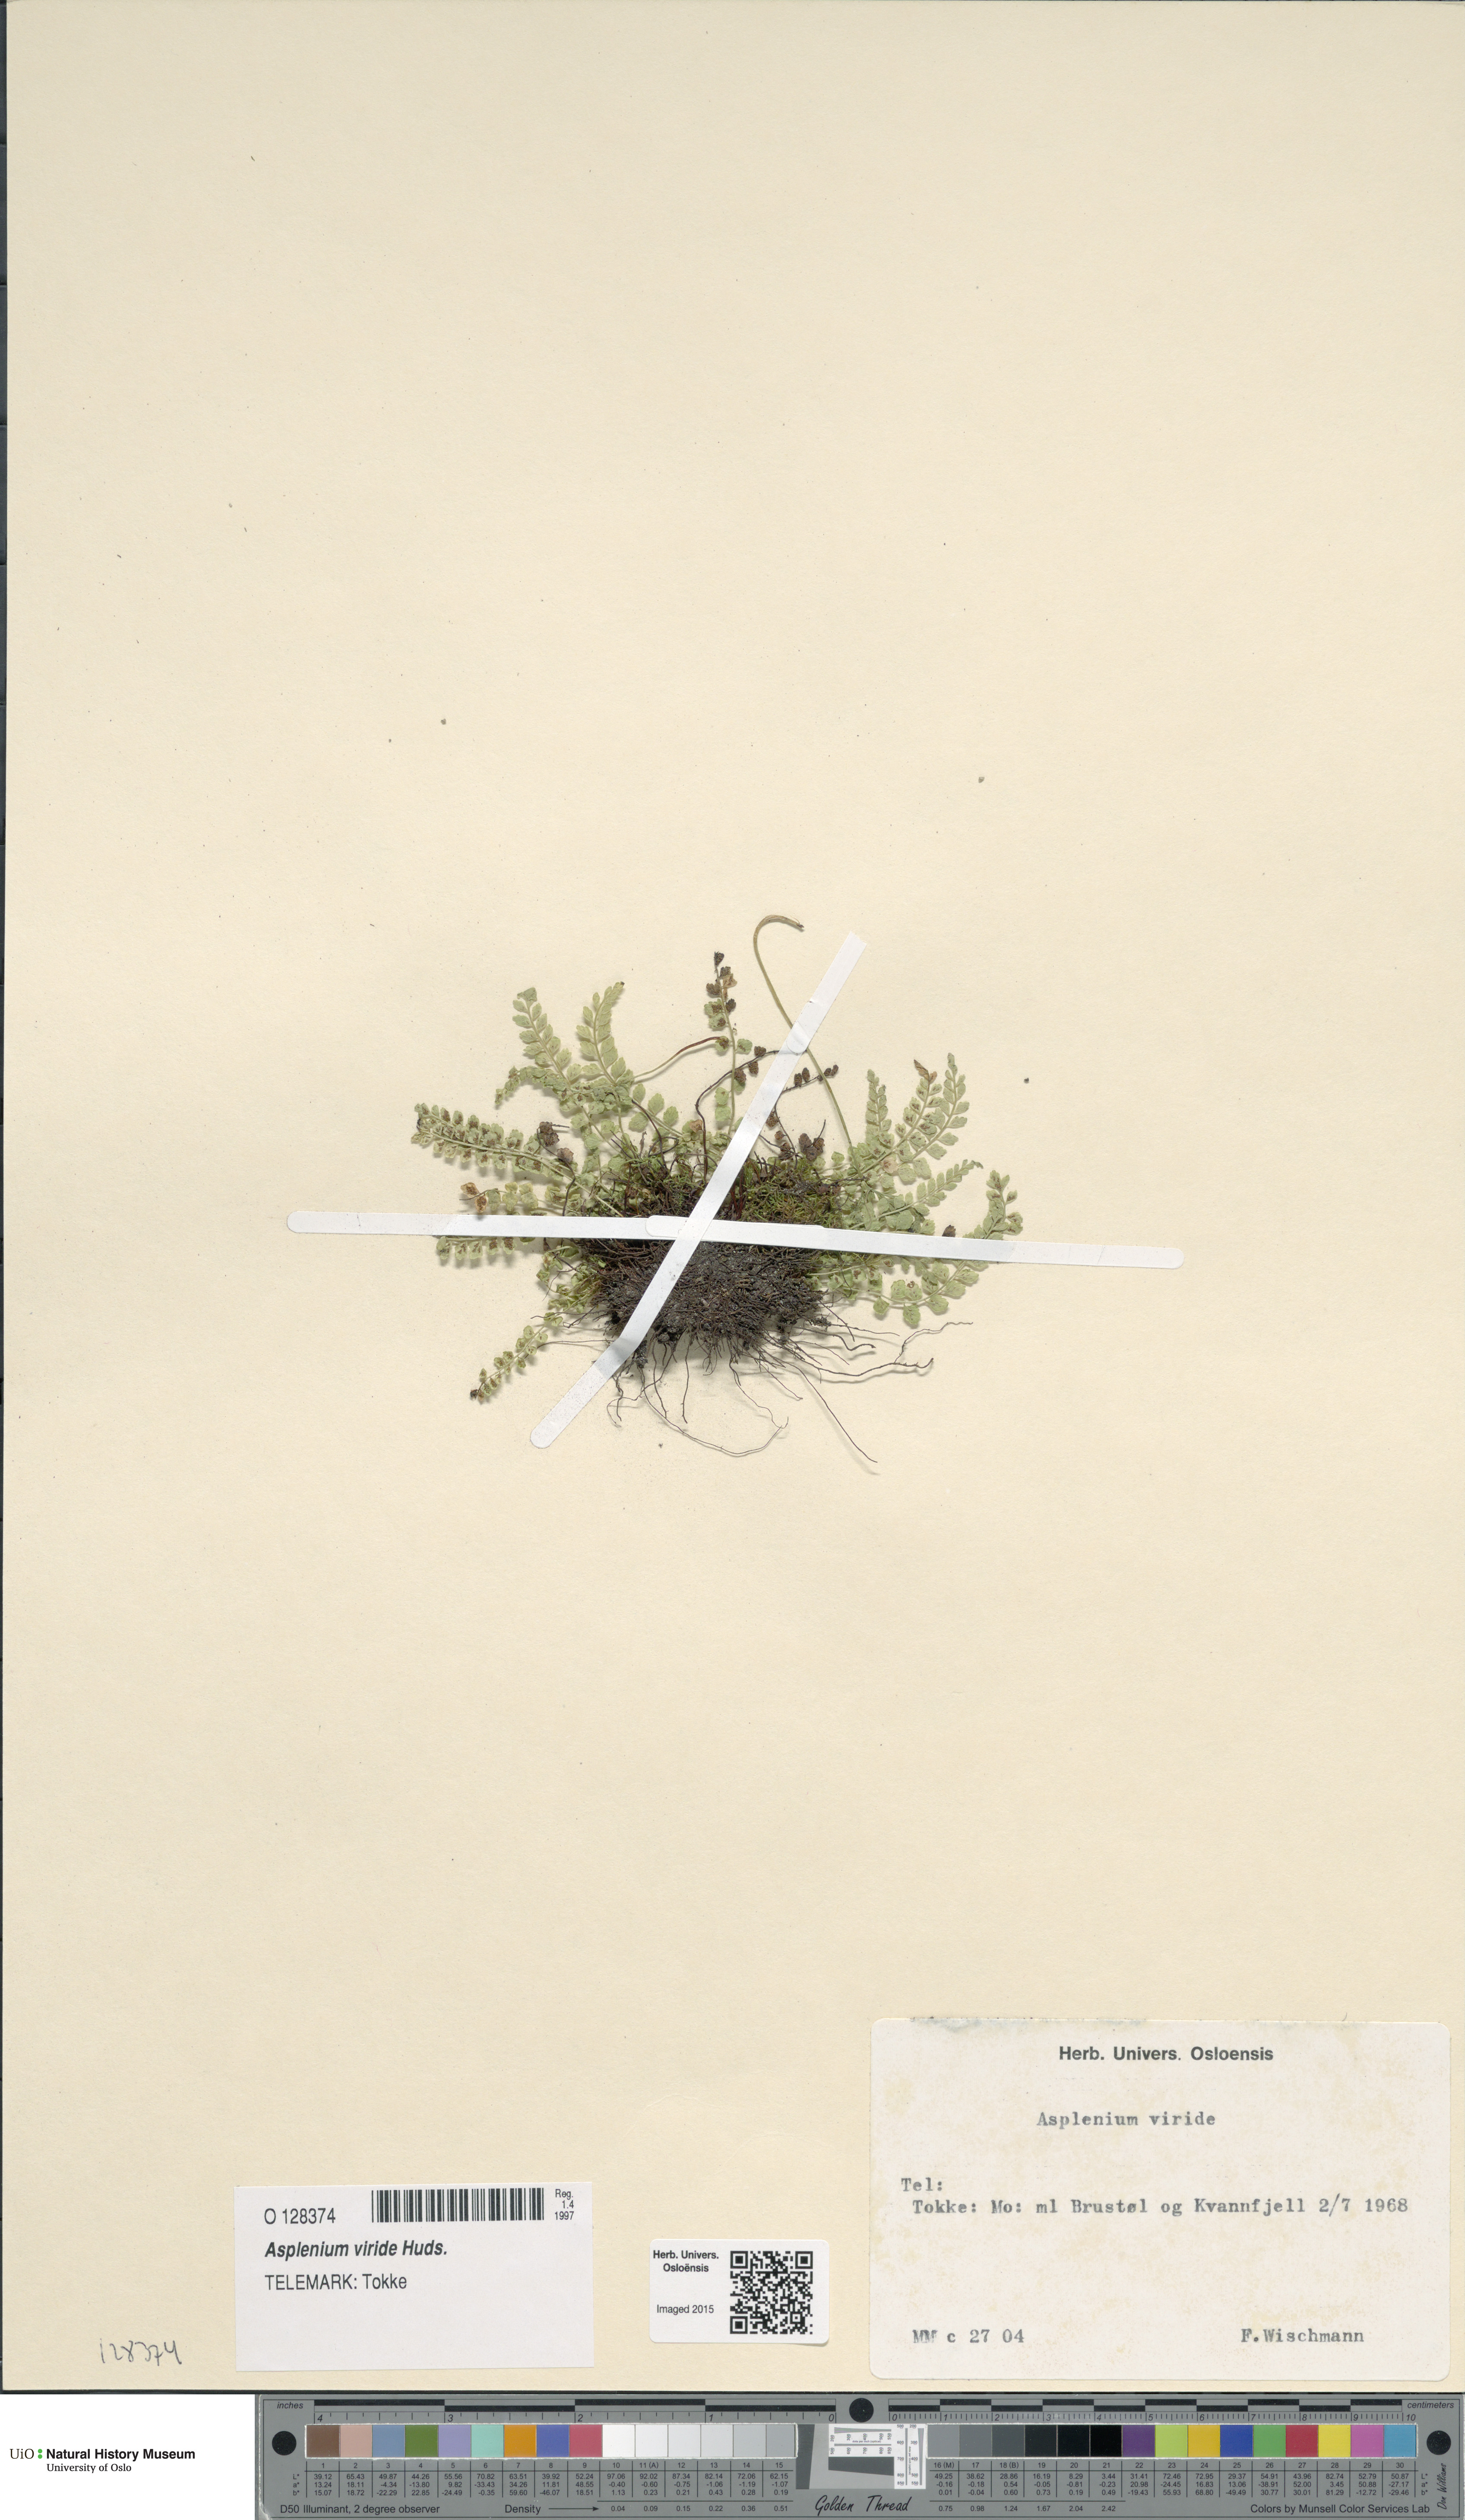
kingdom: Plantae
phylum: Tracheophyta
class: Polypodiopsida
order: Polypodiales
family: Aspleniaceae
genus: Asplenium
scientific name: Asplenium viride
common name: Green spleenwort
